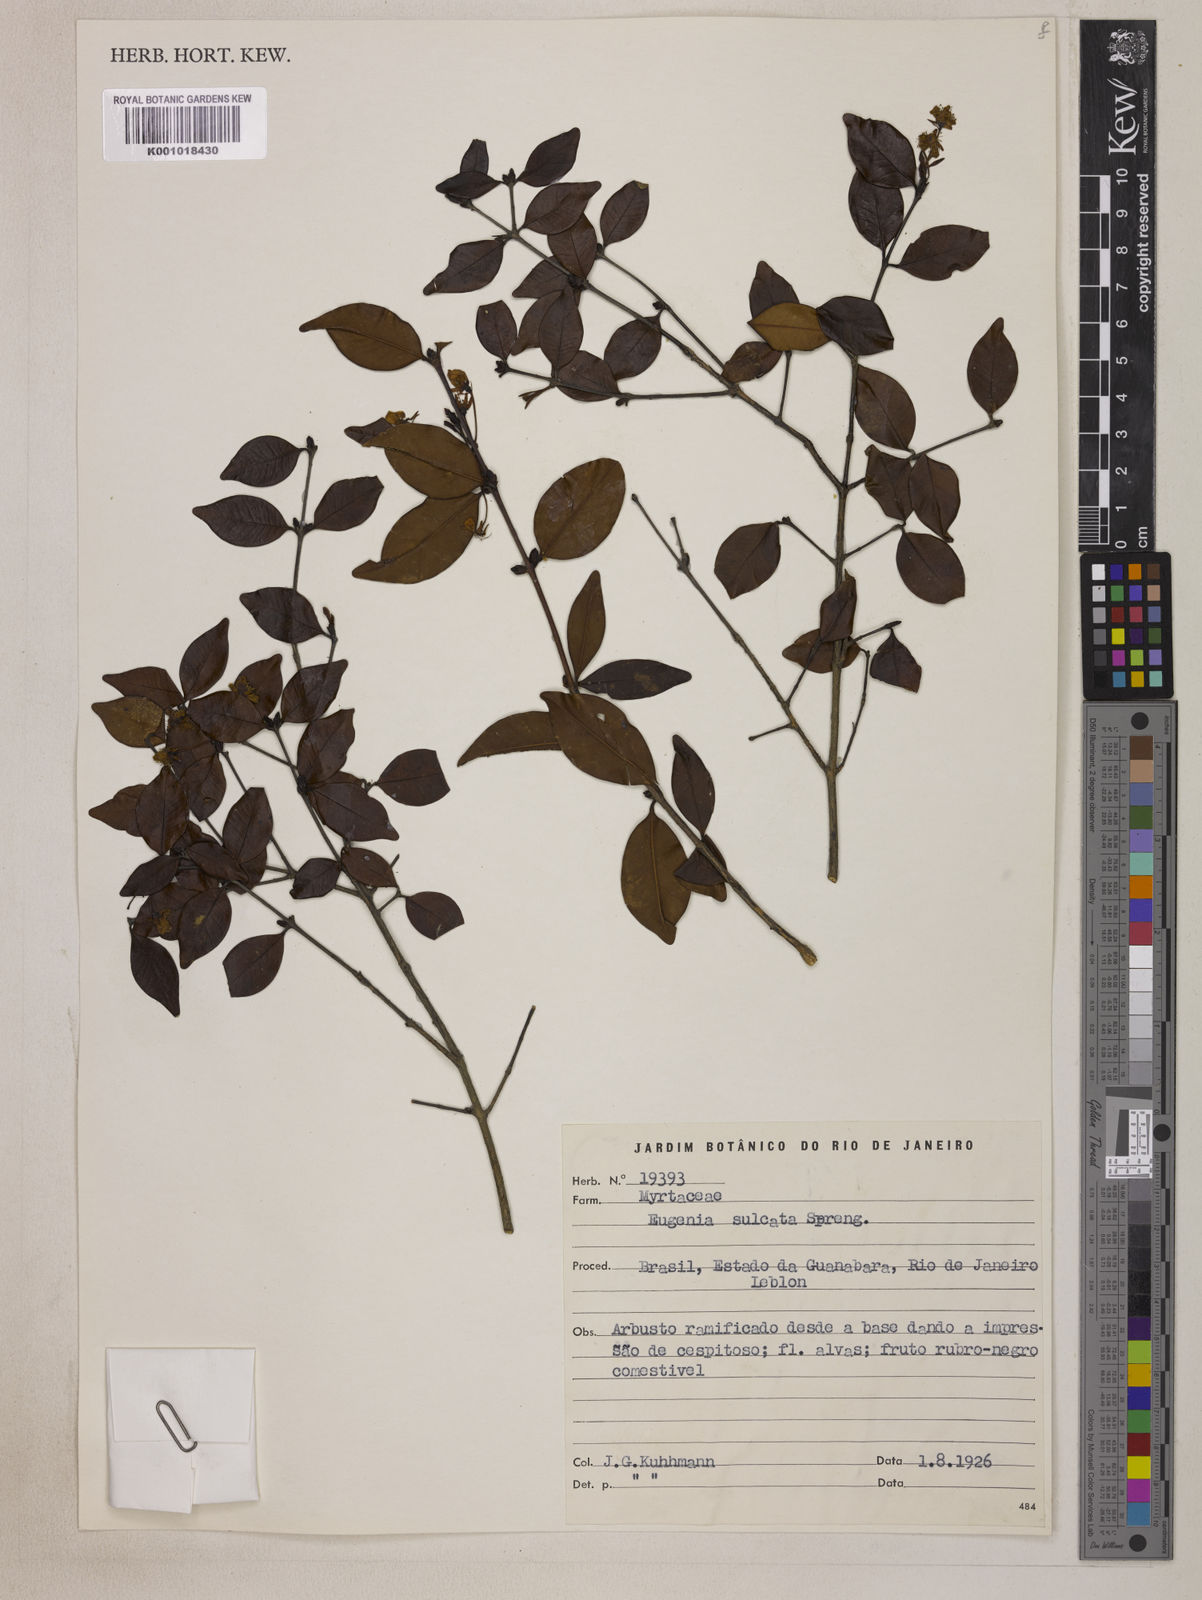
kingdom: Plantae
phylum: Tracheophyta
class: Magnoliopsida
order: Myrtales
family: Myrtaceae
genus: Eugenia
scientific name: Eugenia sulcata
